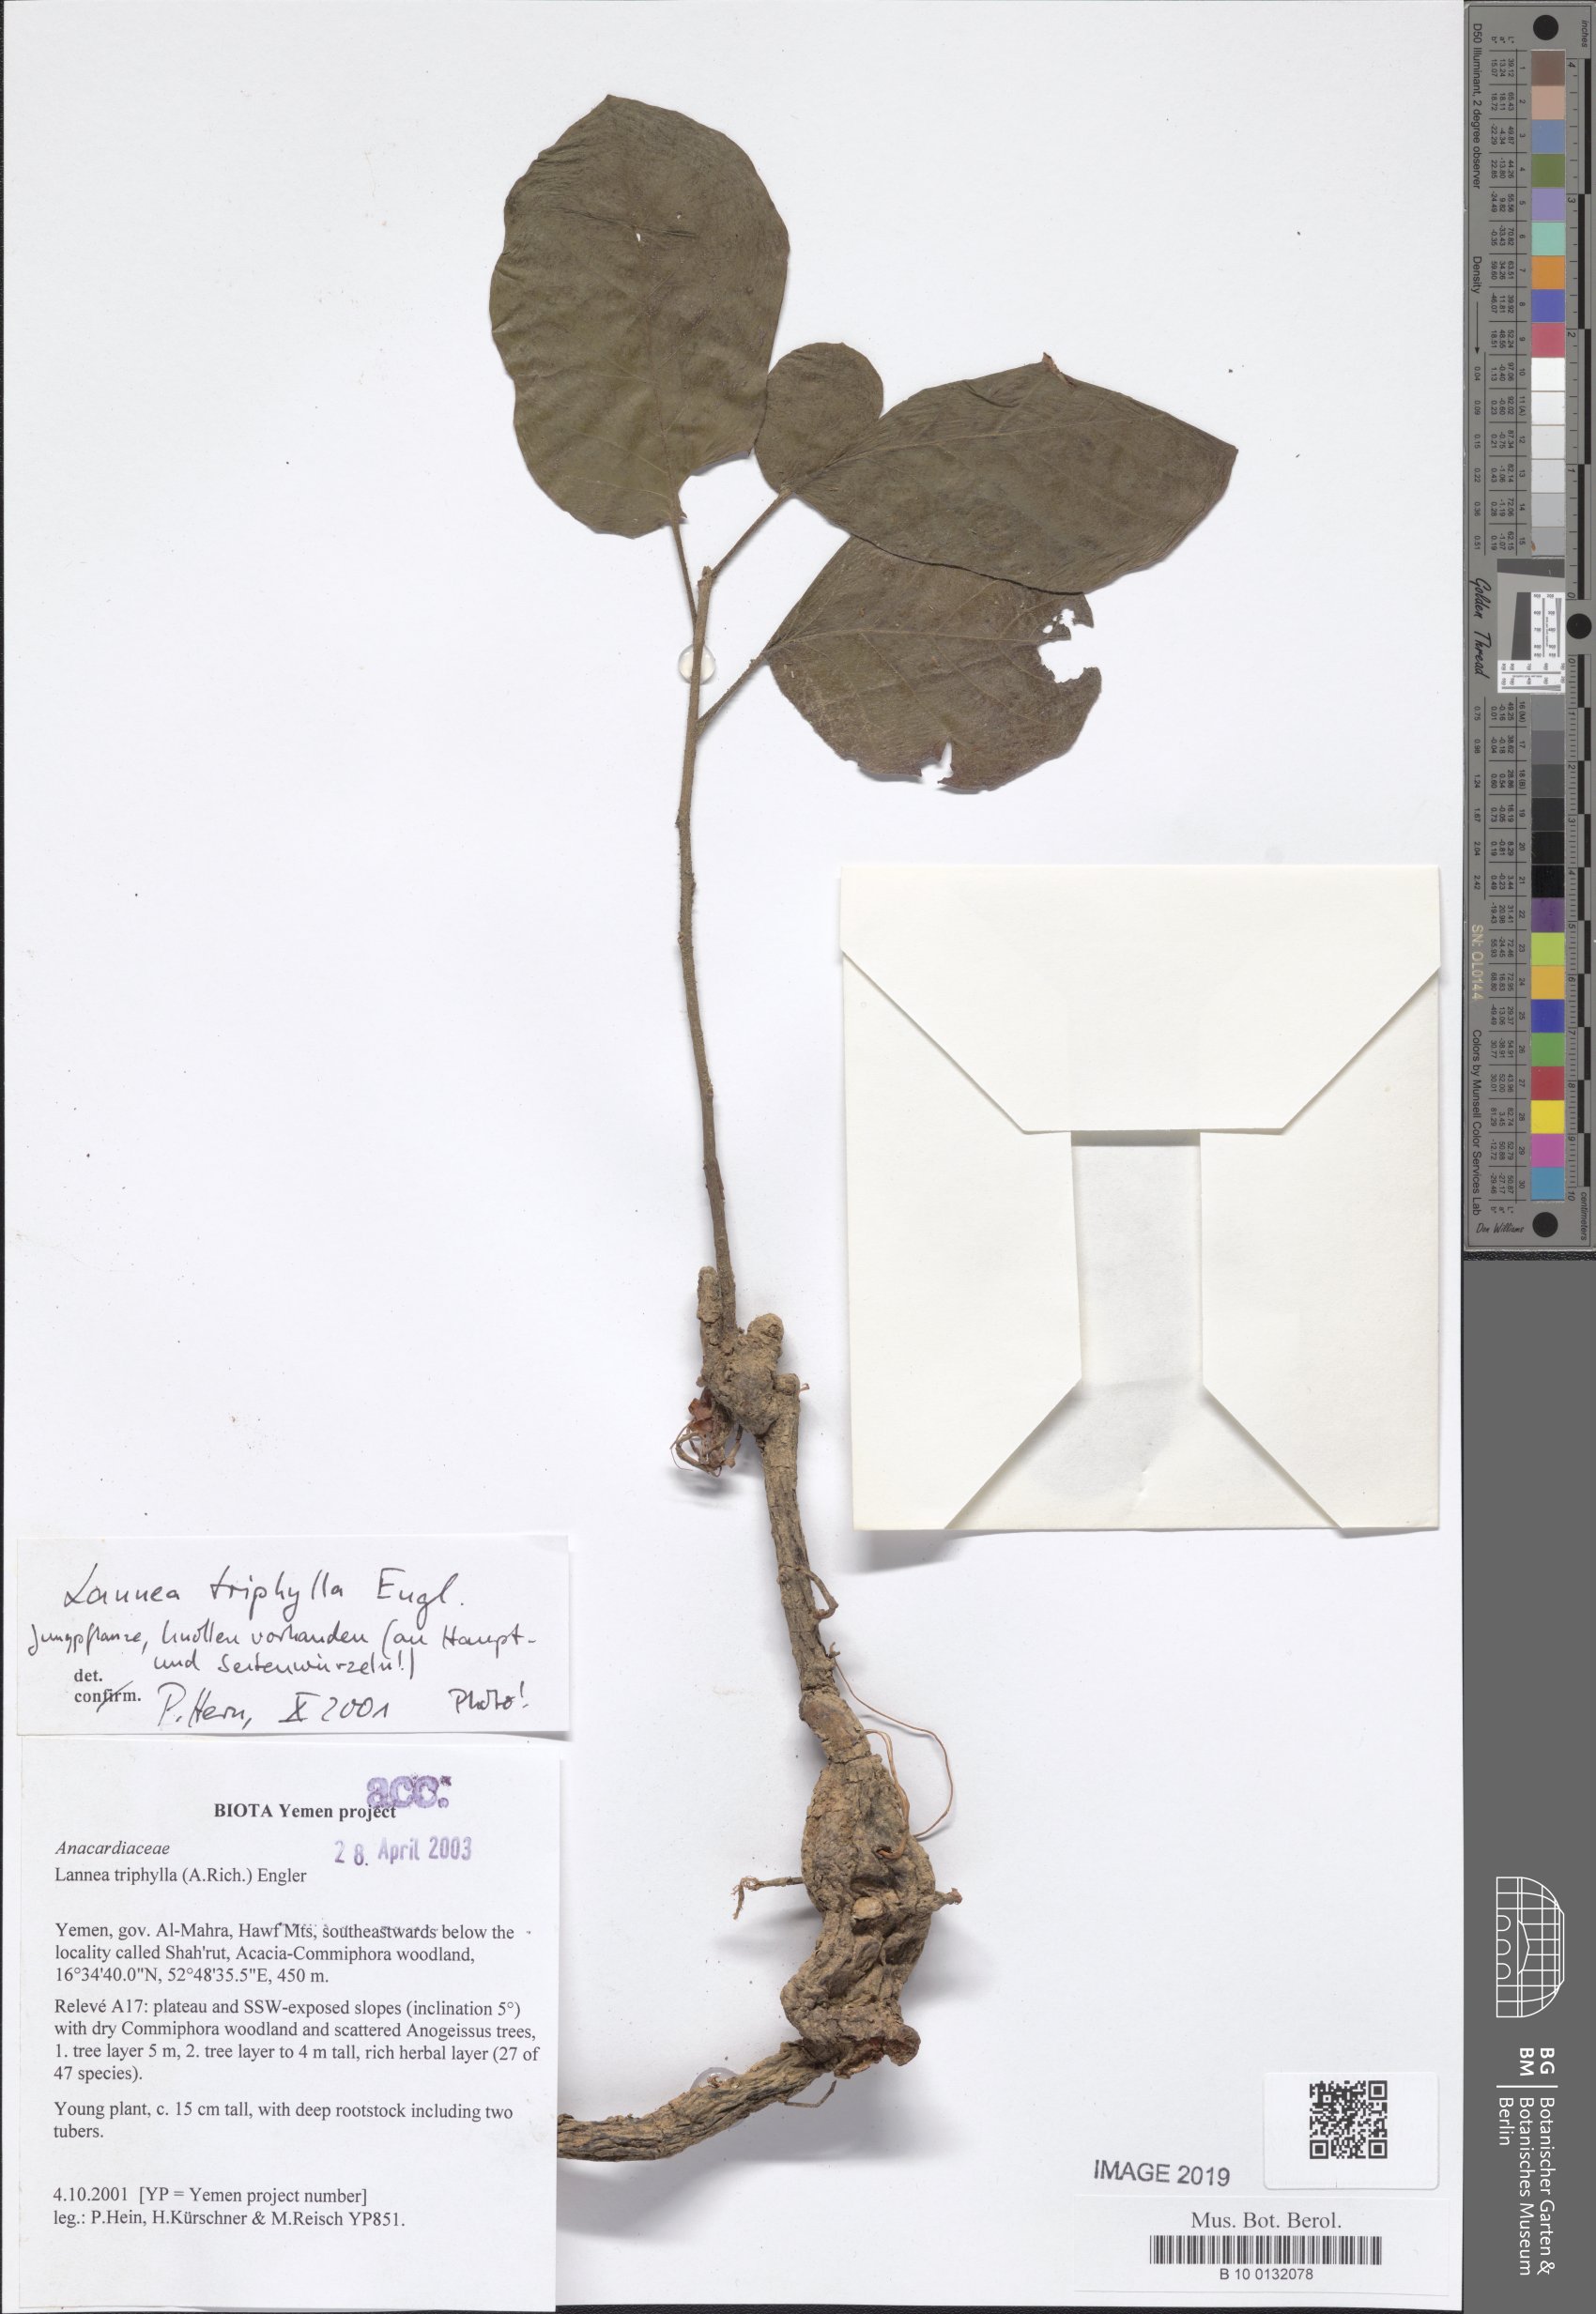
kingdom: Plantae
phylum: Tracheophyta
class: Magnoliopsida
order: Sapindales
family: Anacardiaceae
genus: Lannea
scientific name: Lannea triphylla
